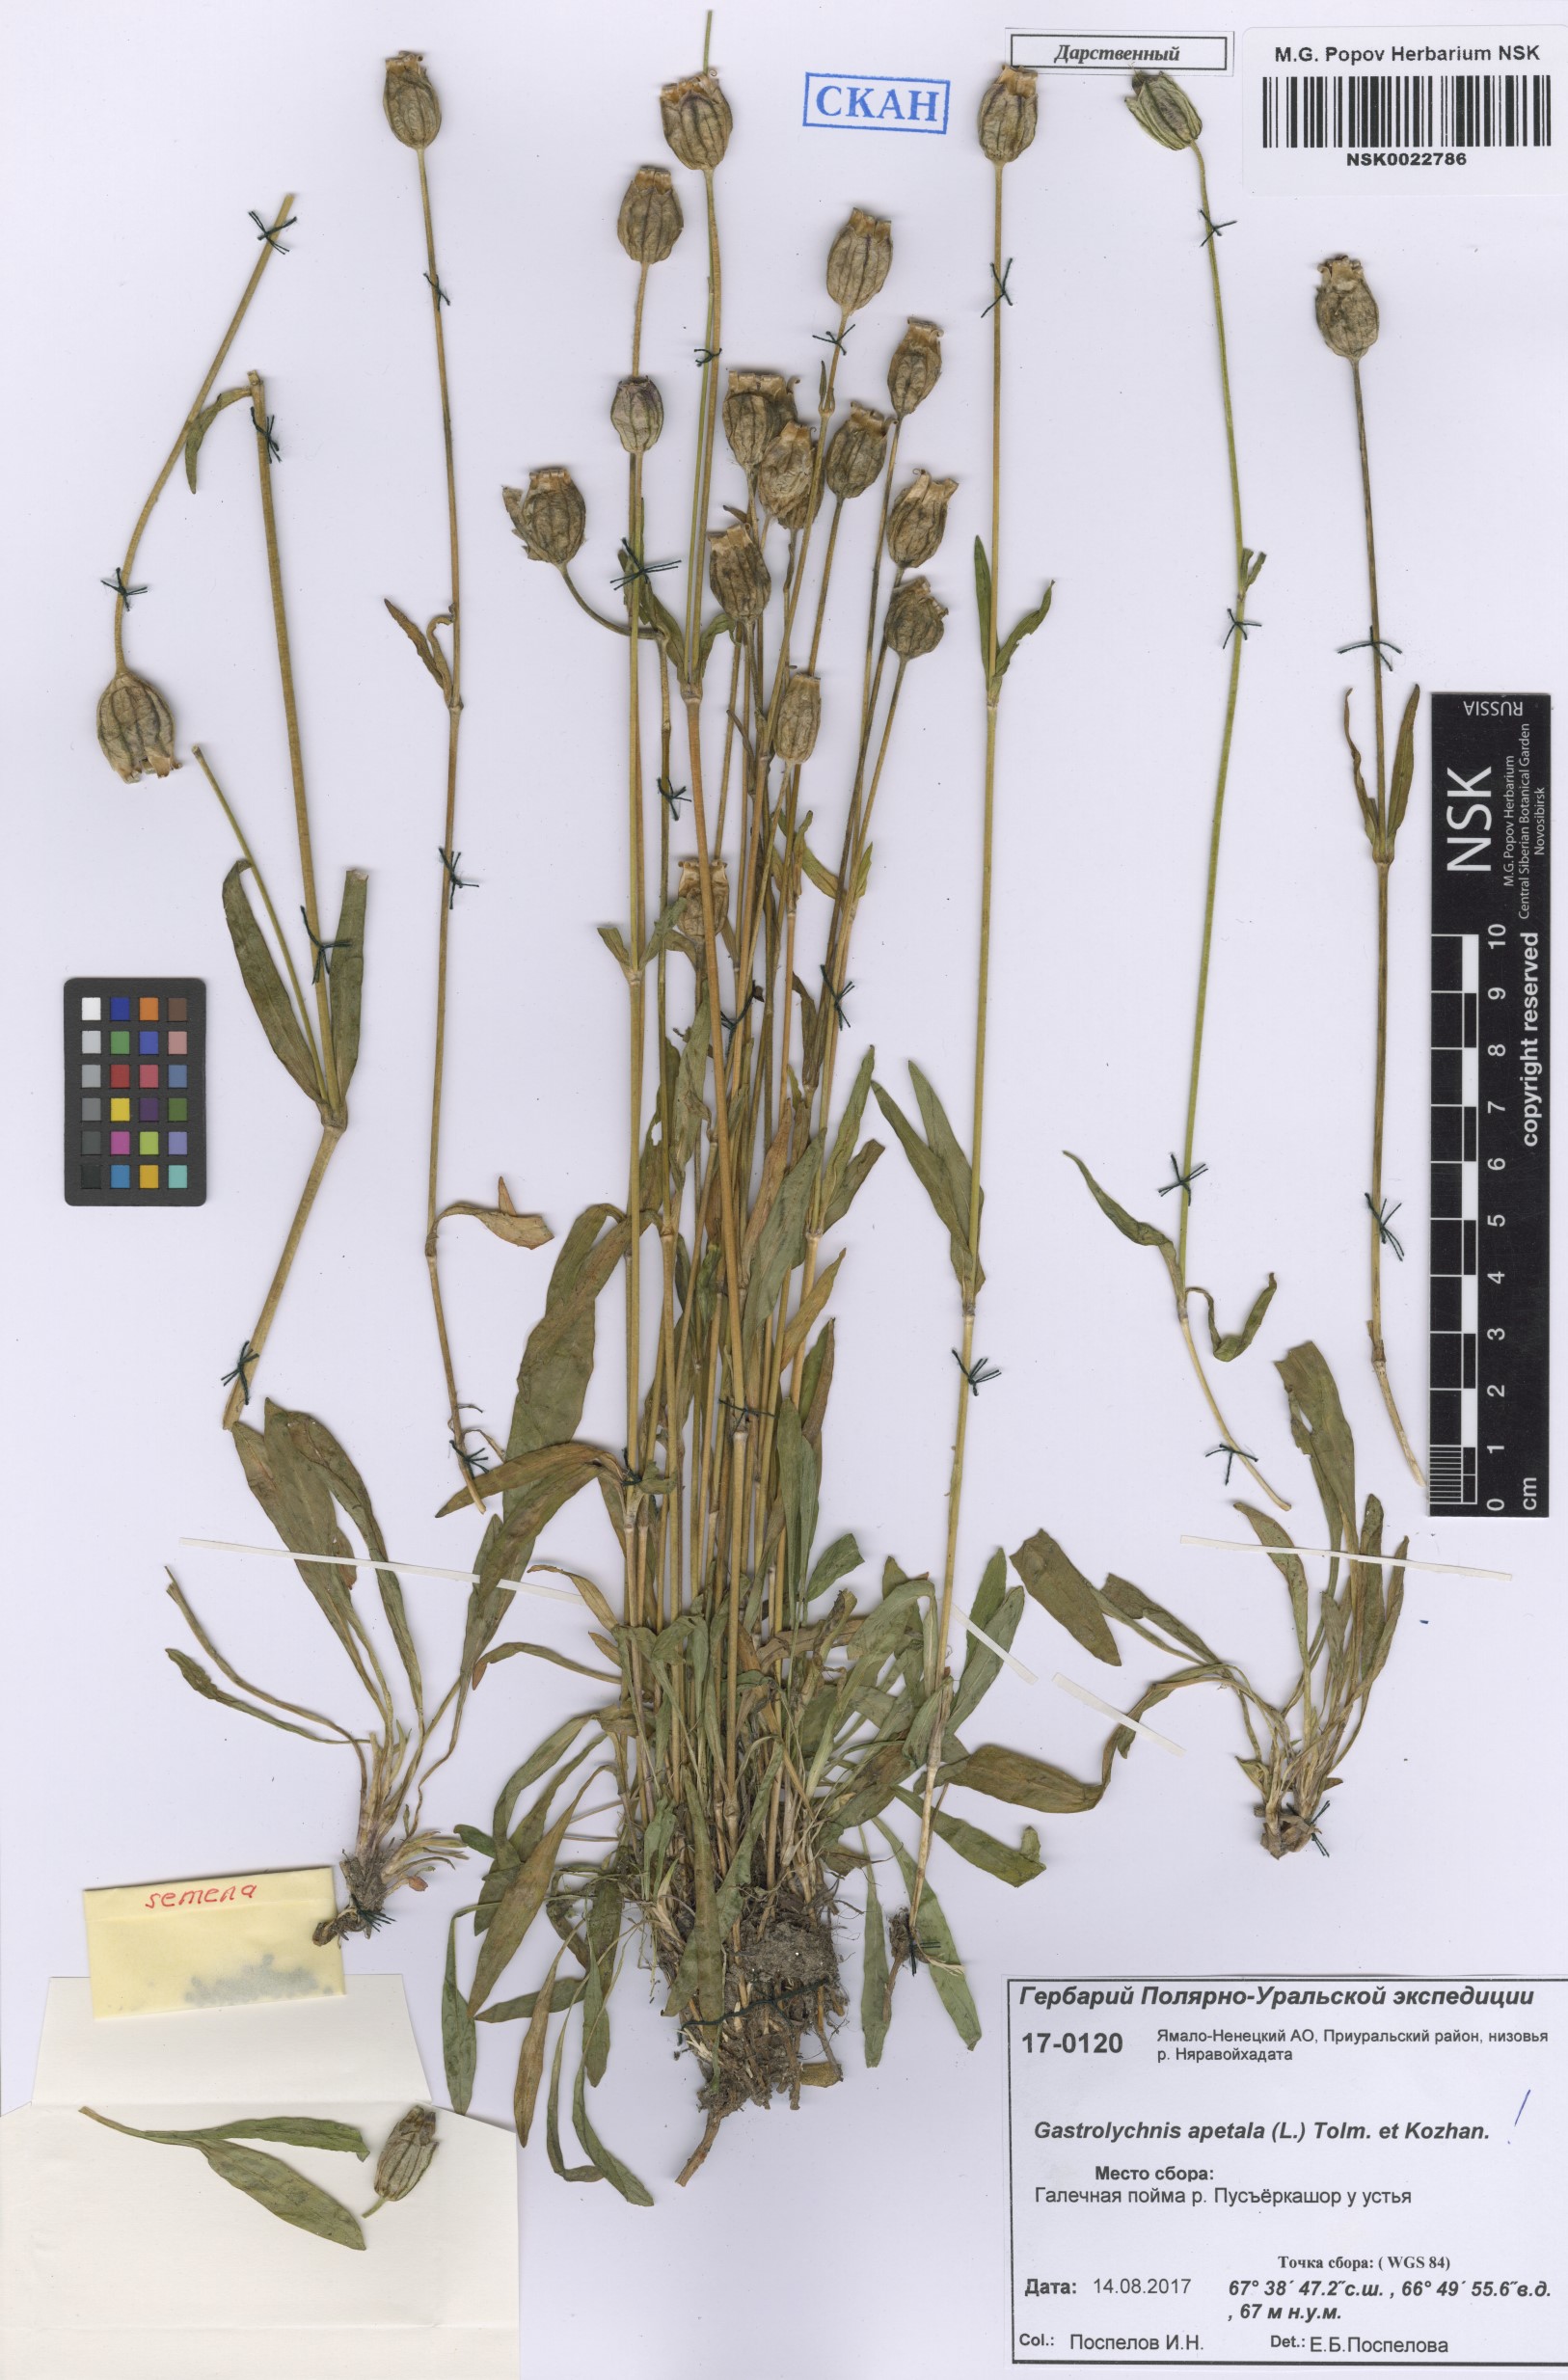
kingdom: Plantae
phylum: Tracheophyta
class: Magnoliopsida
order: Caryophyllales
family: Caryophyllaceae
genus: Silene
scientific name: Silene wahlbergella
